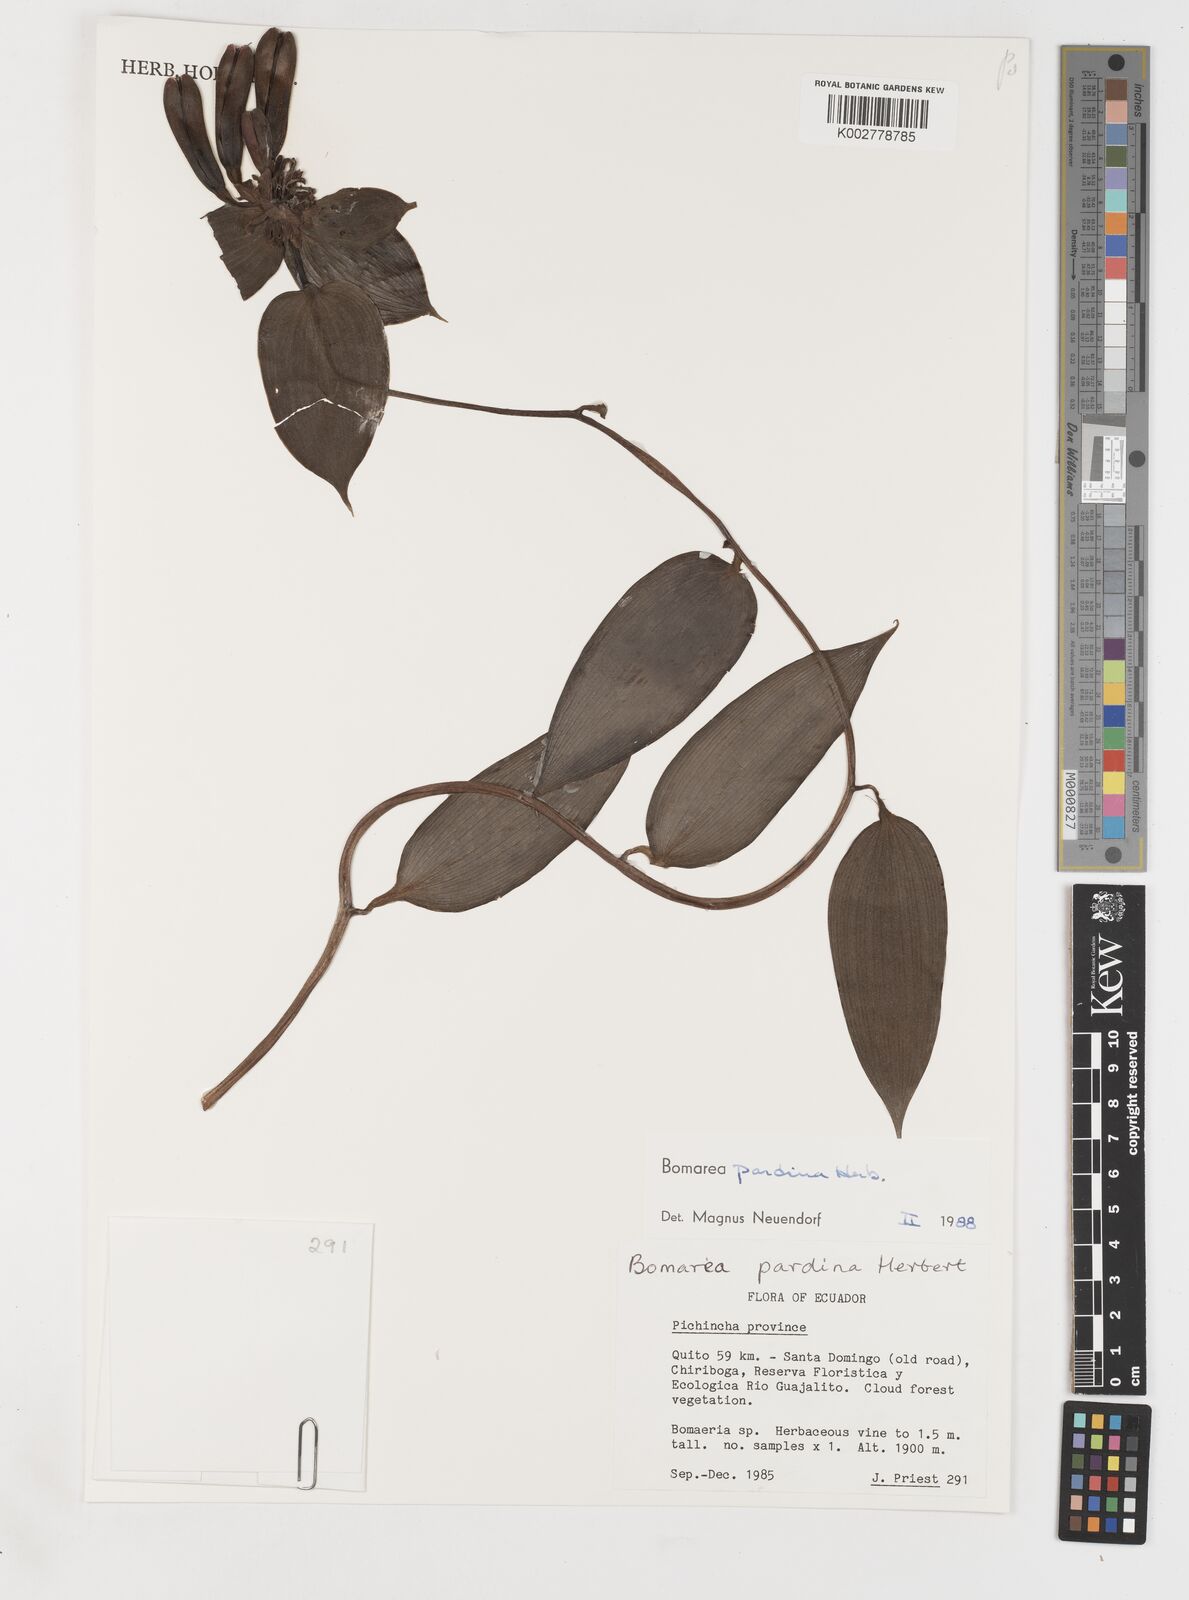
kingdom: Plantae
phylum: Tracheophyta
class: Liliopsida
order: Liliales
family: Alstroemeriaceae
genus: Bomarea
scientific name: Bomarea pardina
